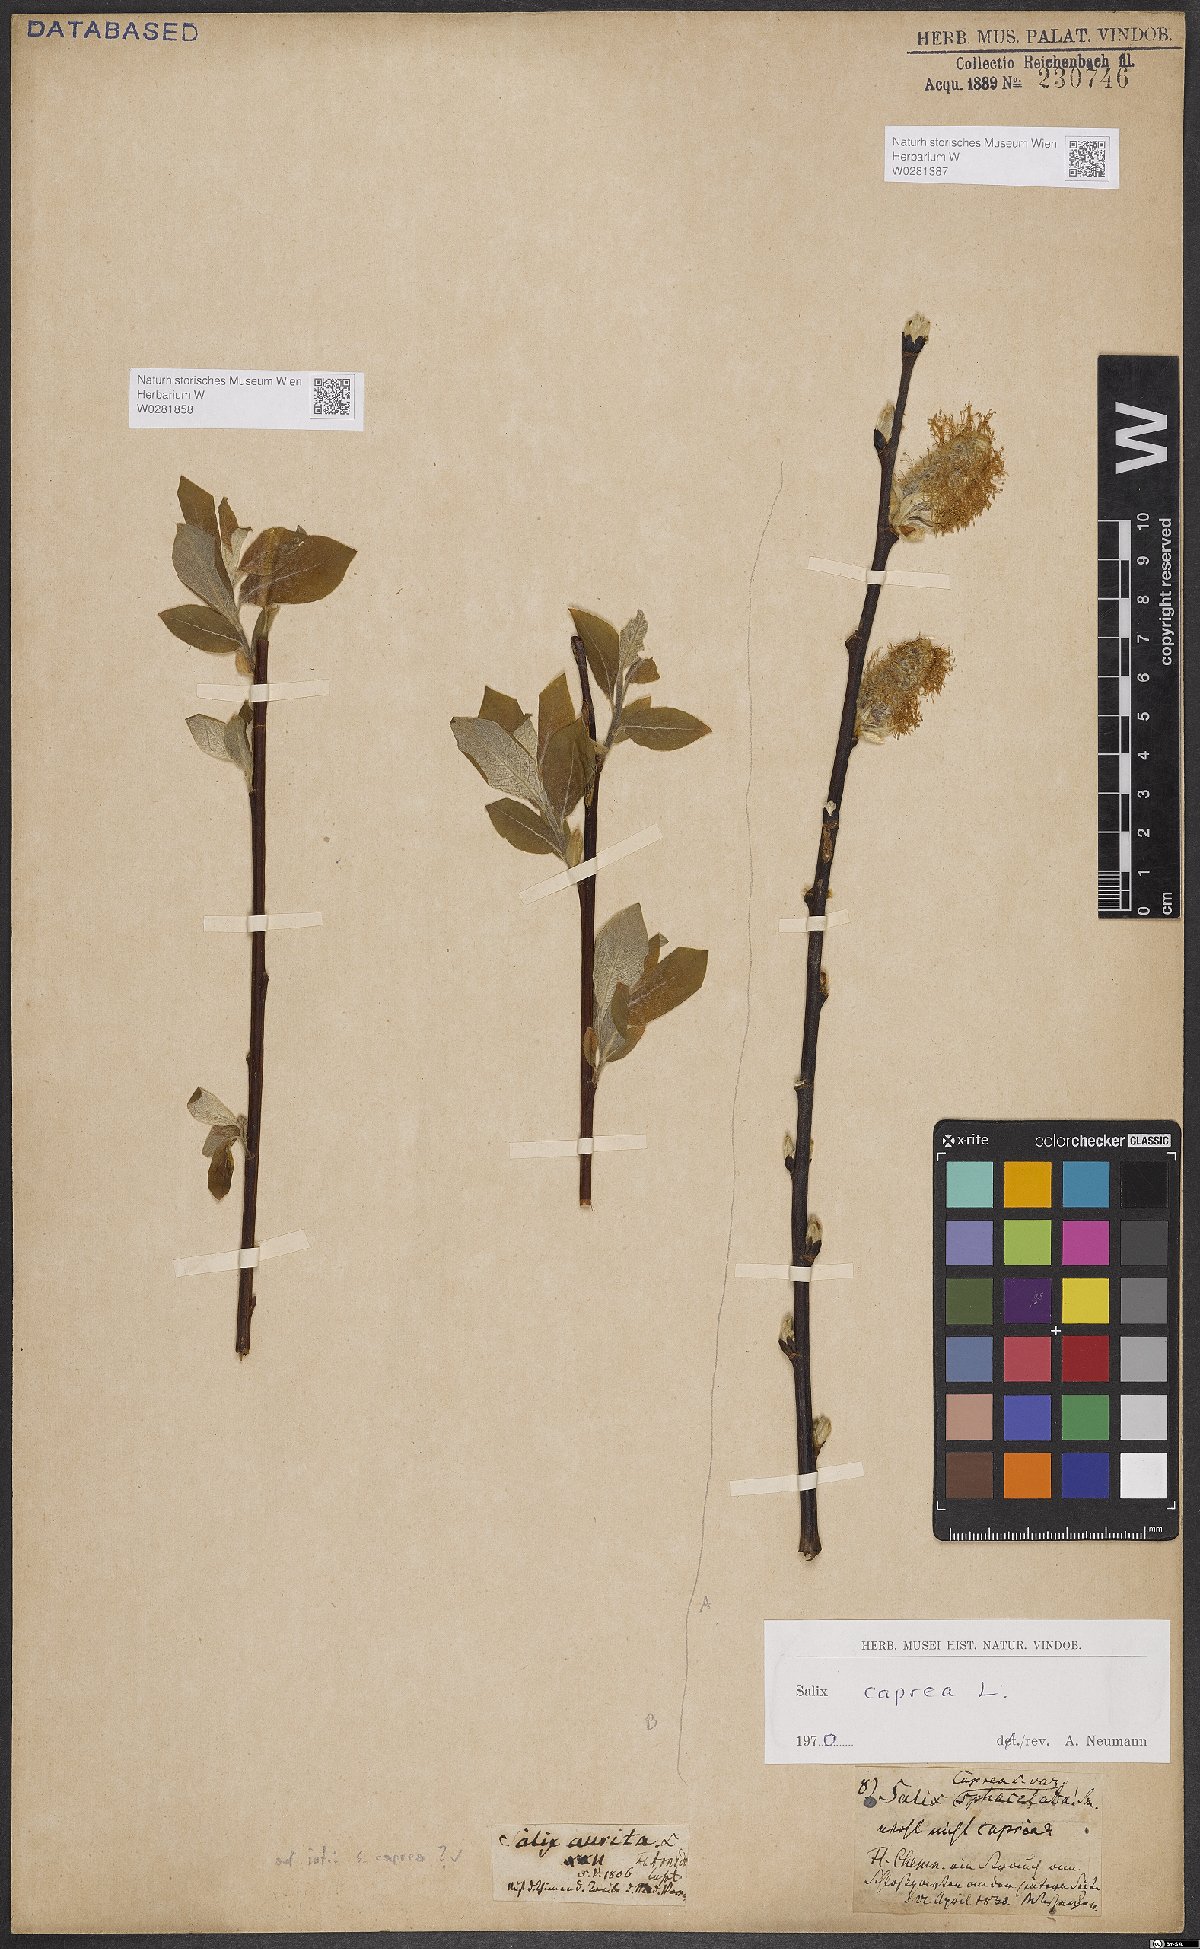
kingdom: Plantae
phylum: Tracheophyta
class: Magnoliopsida
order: Malpighiales
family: Salicaceae
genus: Salix
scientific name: Salix caprea
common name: Goat willow
